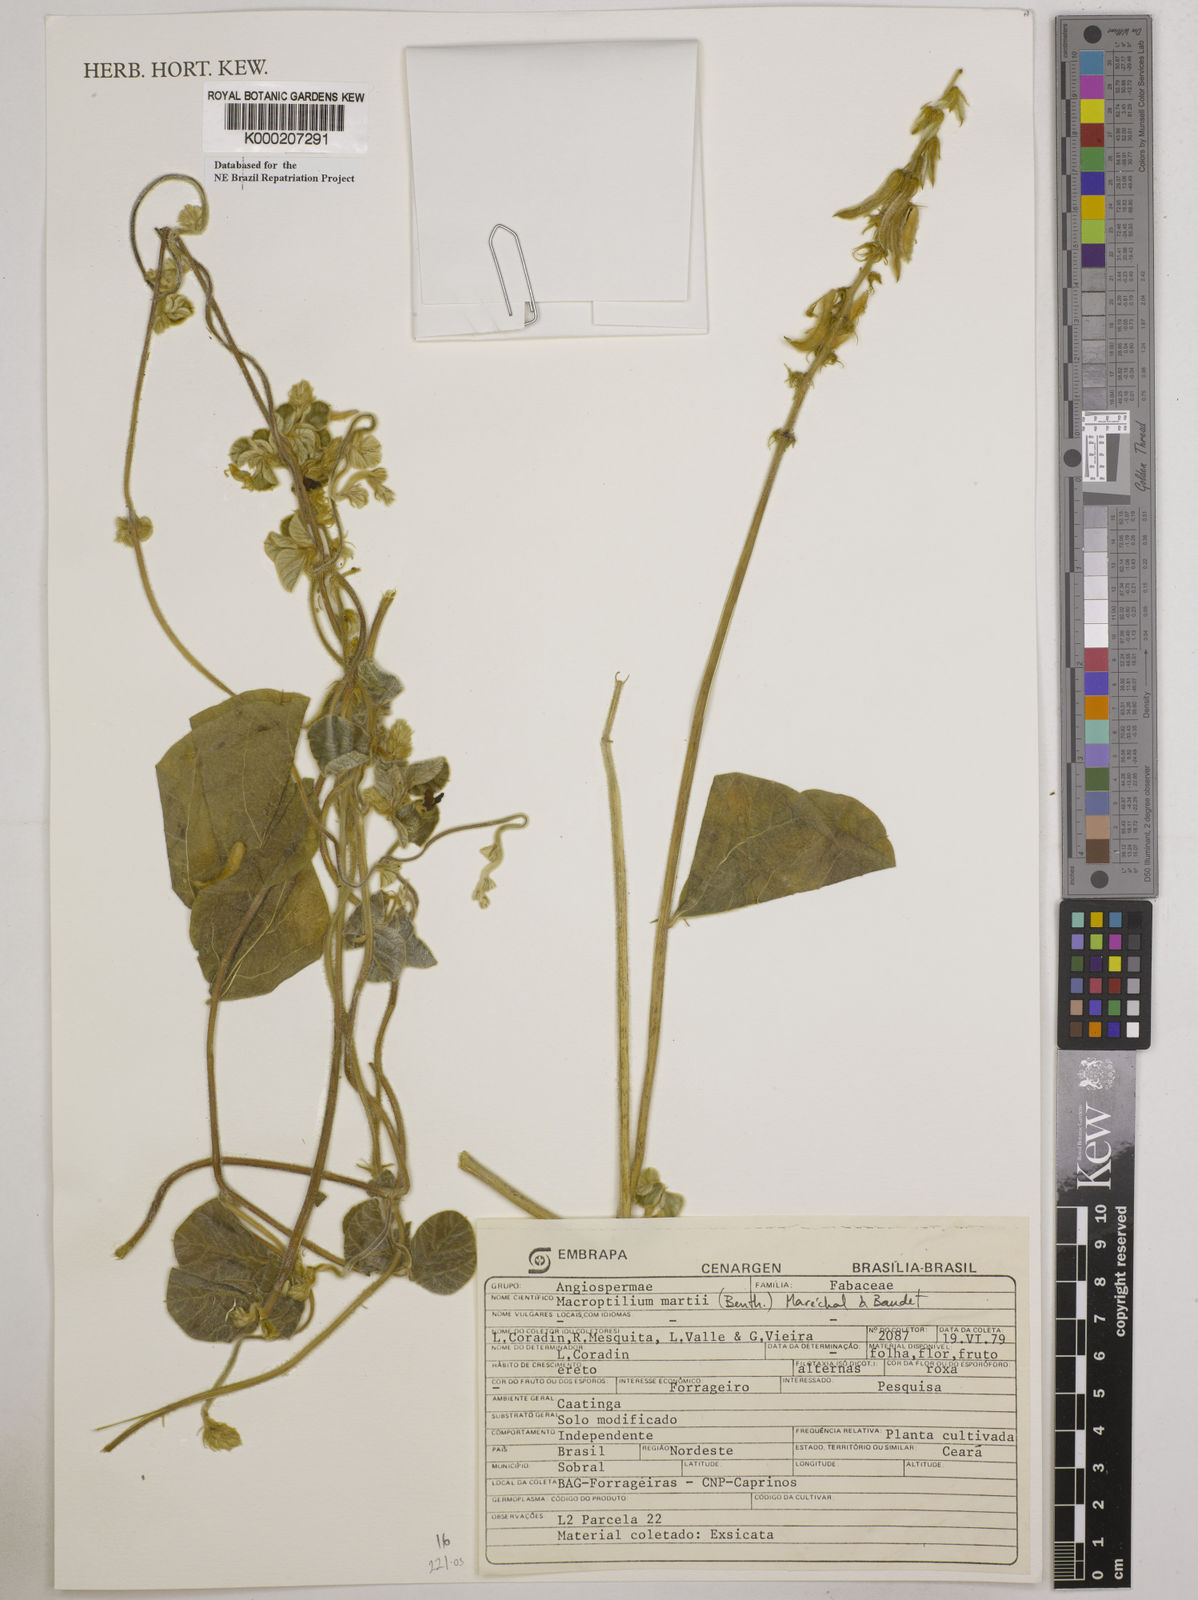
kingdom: Plantae
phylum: Tracheophyta
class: Magnoliopsida
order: Fabales
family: Fabaceae
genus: Macroptilium
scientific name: Macroptilium
